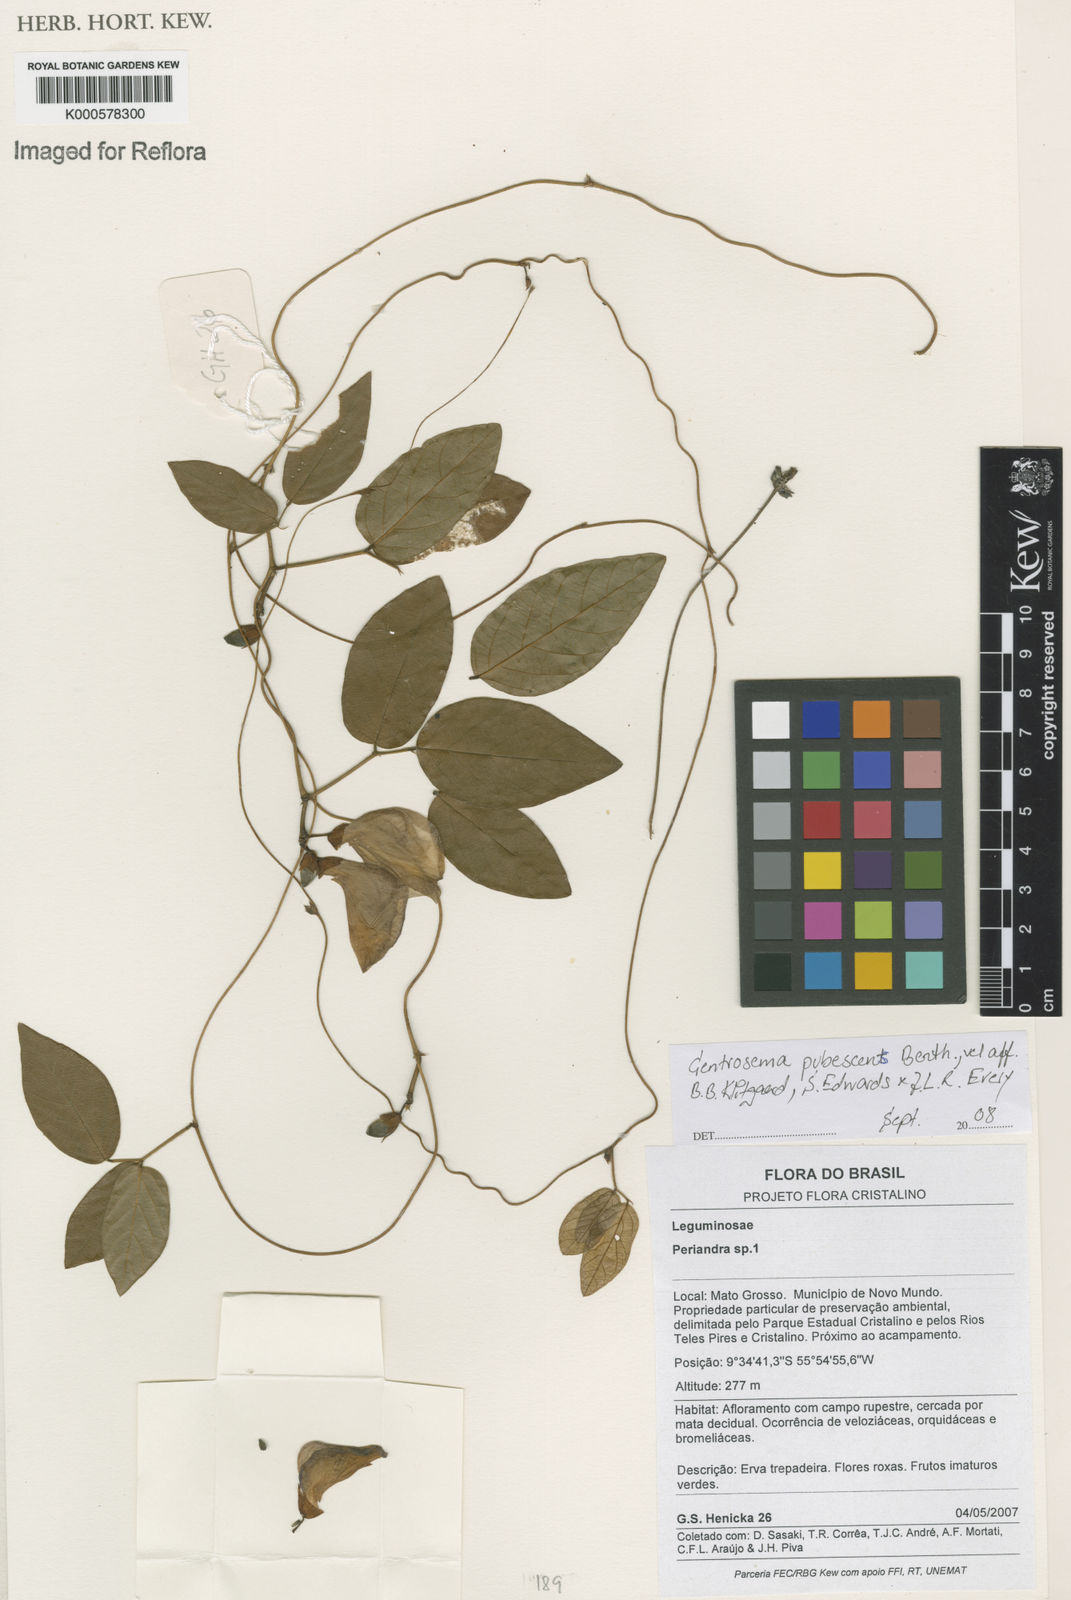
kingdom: Plantae
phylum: Tracheophyta
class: Magnoliopsida
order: Fabales
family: Fabaceae
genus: Centrosema
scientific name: Centrosema pubescens
